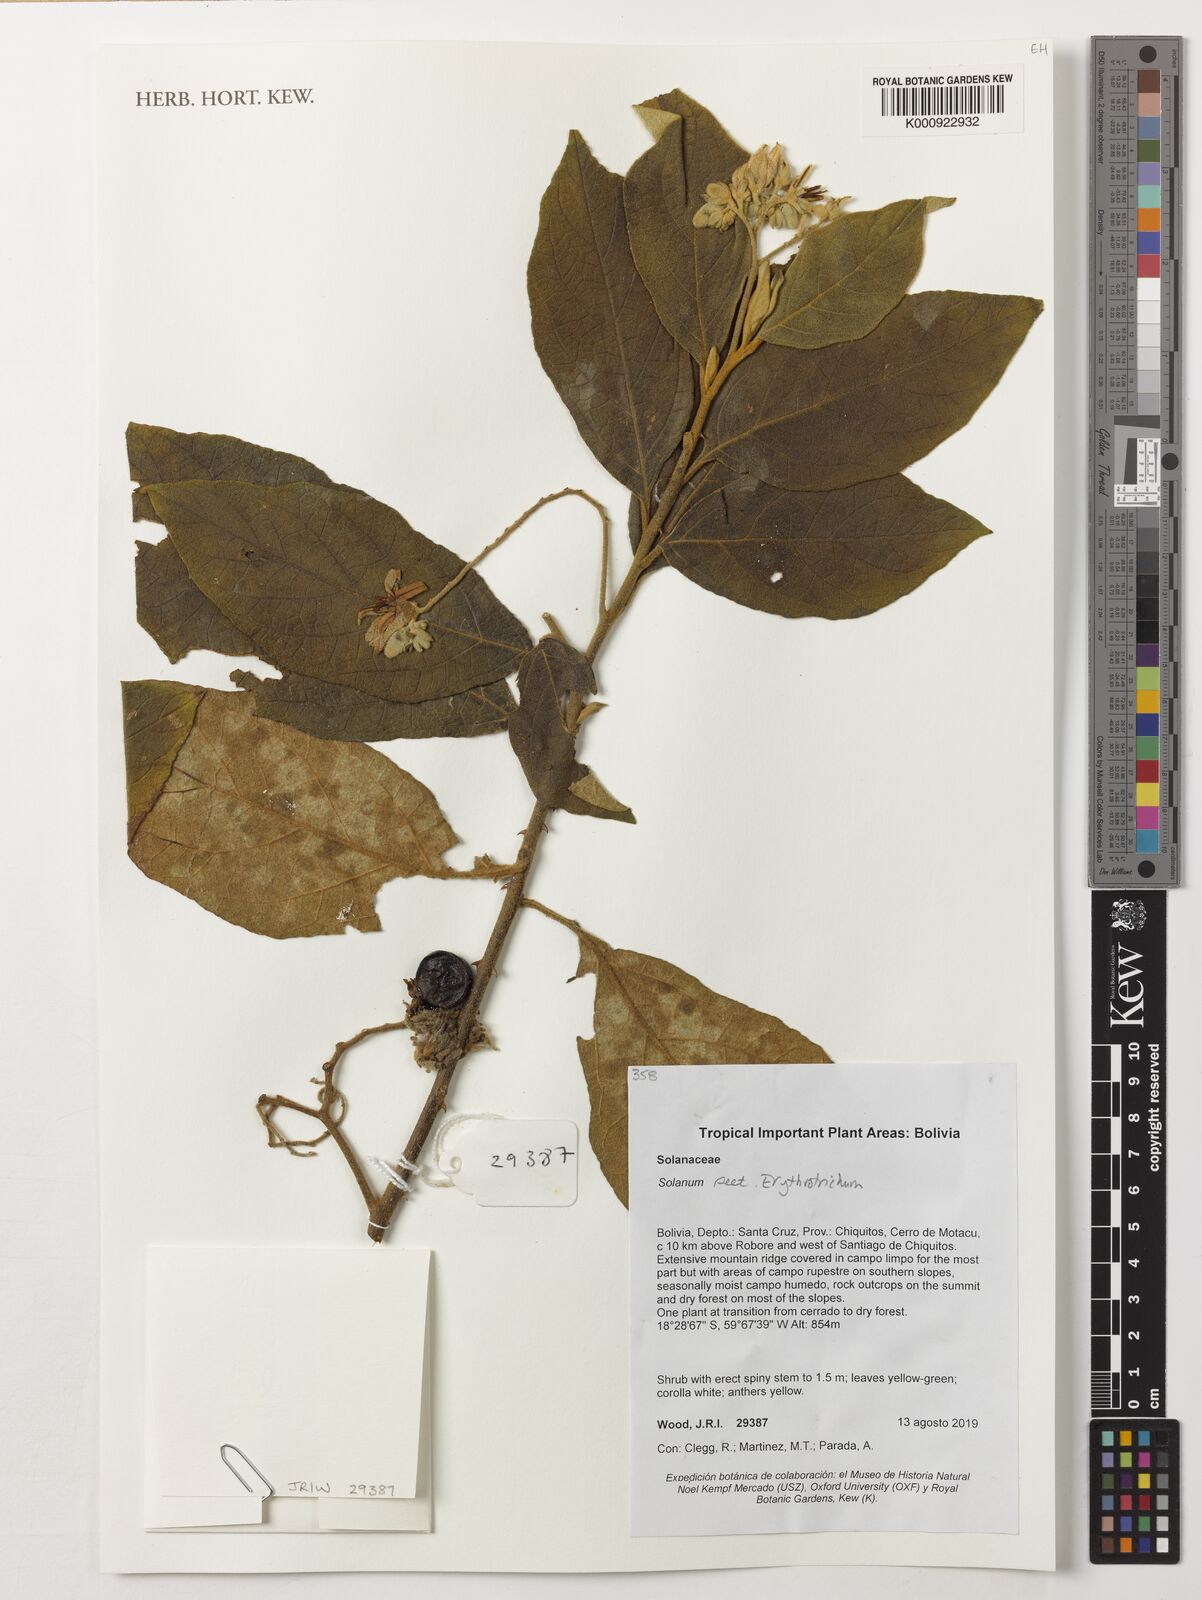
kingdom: Plantae
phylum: Tracheophyta
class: Magnoliopsida
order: Solanales
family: Solanaceae
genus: Solanum
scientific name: Solanum rhytidoandrum
